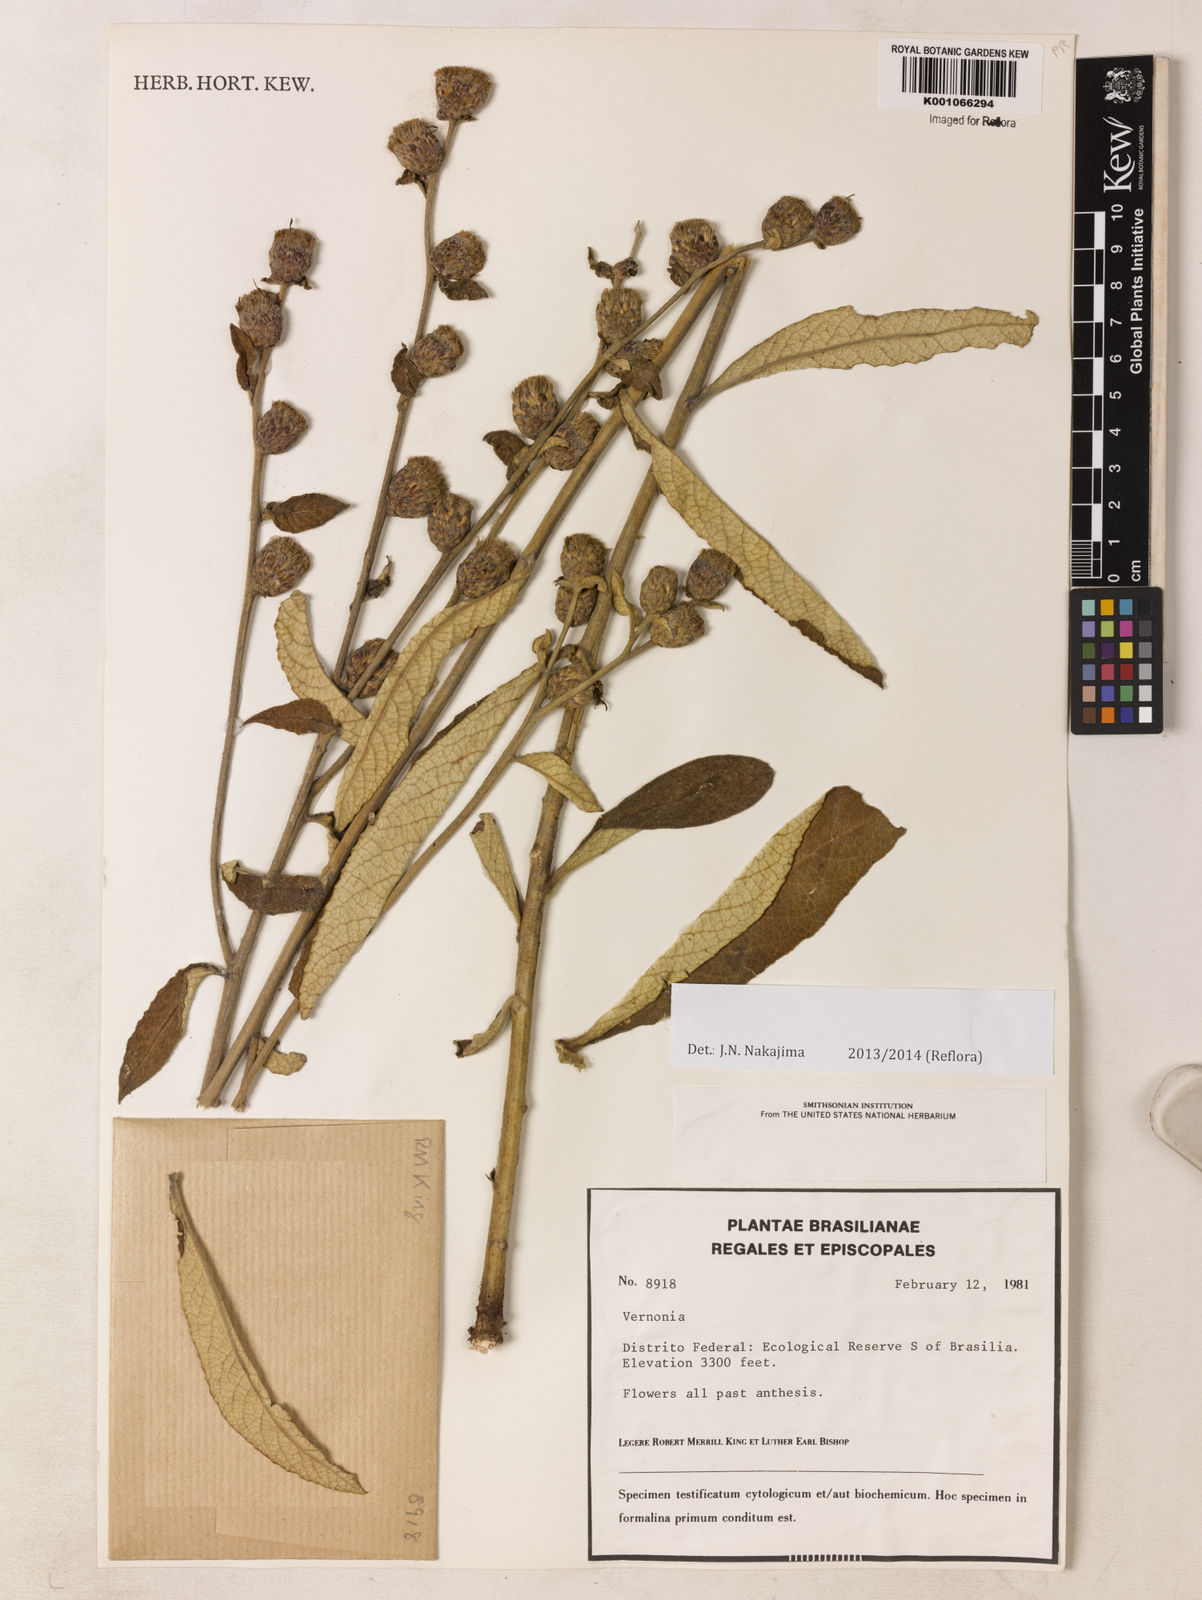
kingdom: Plantae
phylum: Tracheophyta
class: Magnoliopsida
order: Asterales
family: Asteraceae
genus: Lessingianthus
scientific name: Lessingianthus buddlejifolius
